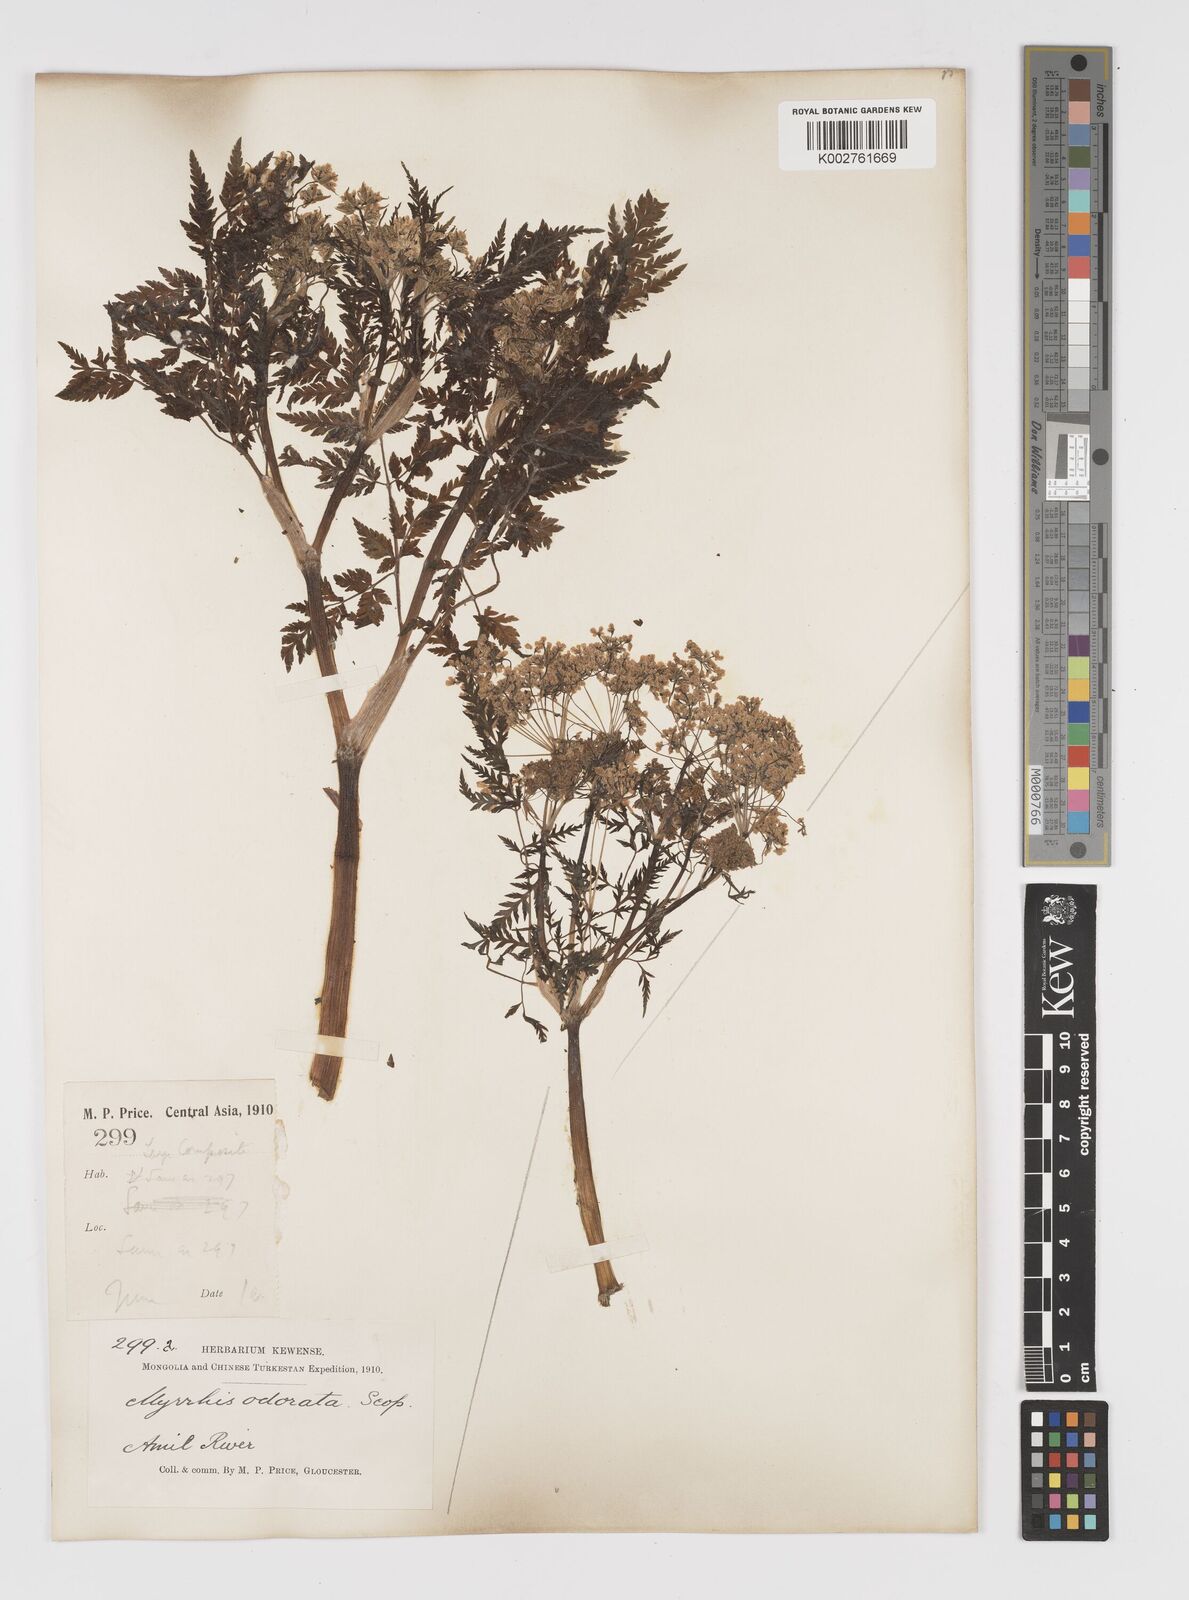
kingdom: Plantae
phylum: Tracheophyta
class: Magnoliopsida
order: Apiales
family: Apiaceae
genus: Myrrhis
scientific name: Myrrhis odorata
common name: Sweet cicely
